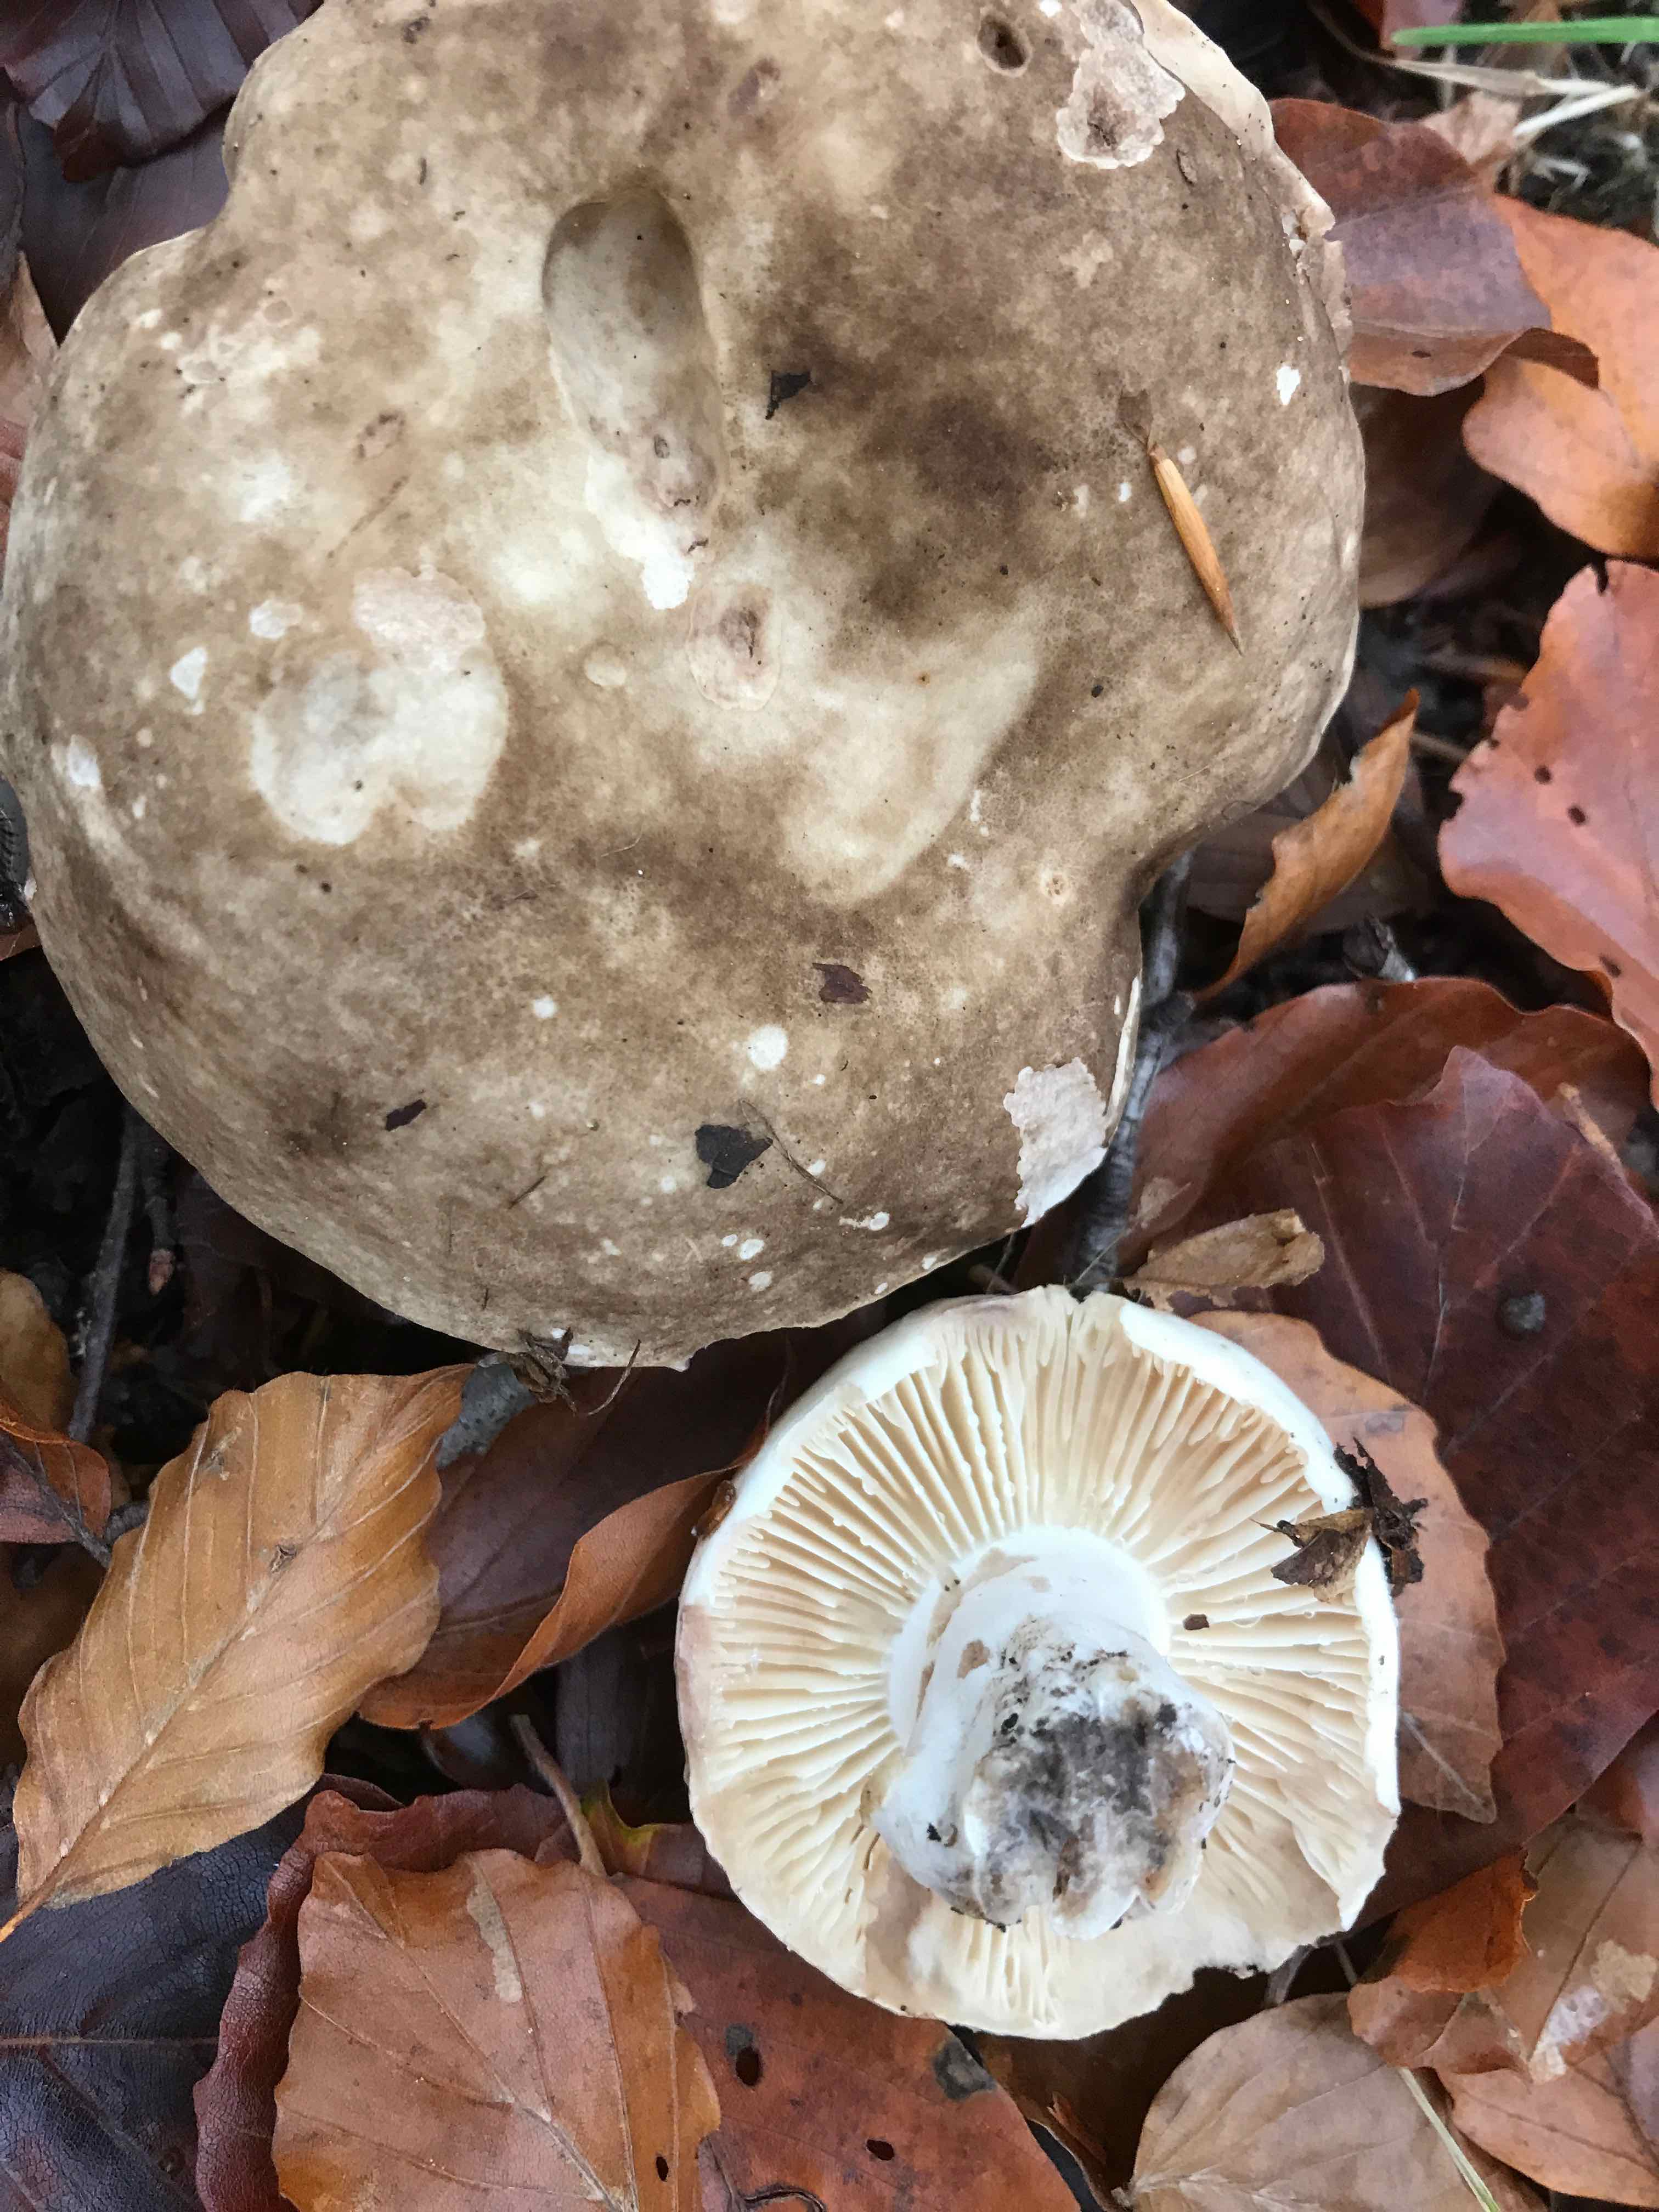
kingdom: Fungi
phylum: Basidiomycota
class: Agaricomycetes
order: Russulales
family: Russulaceae
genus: Russula
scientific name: Russula adusta
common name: sværtende skørhat
